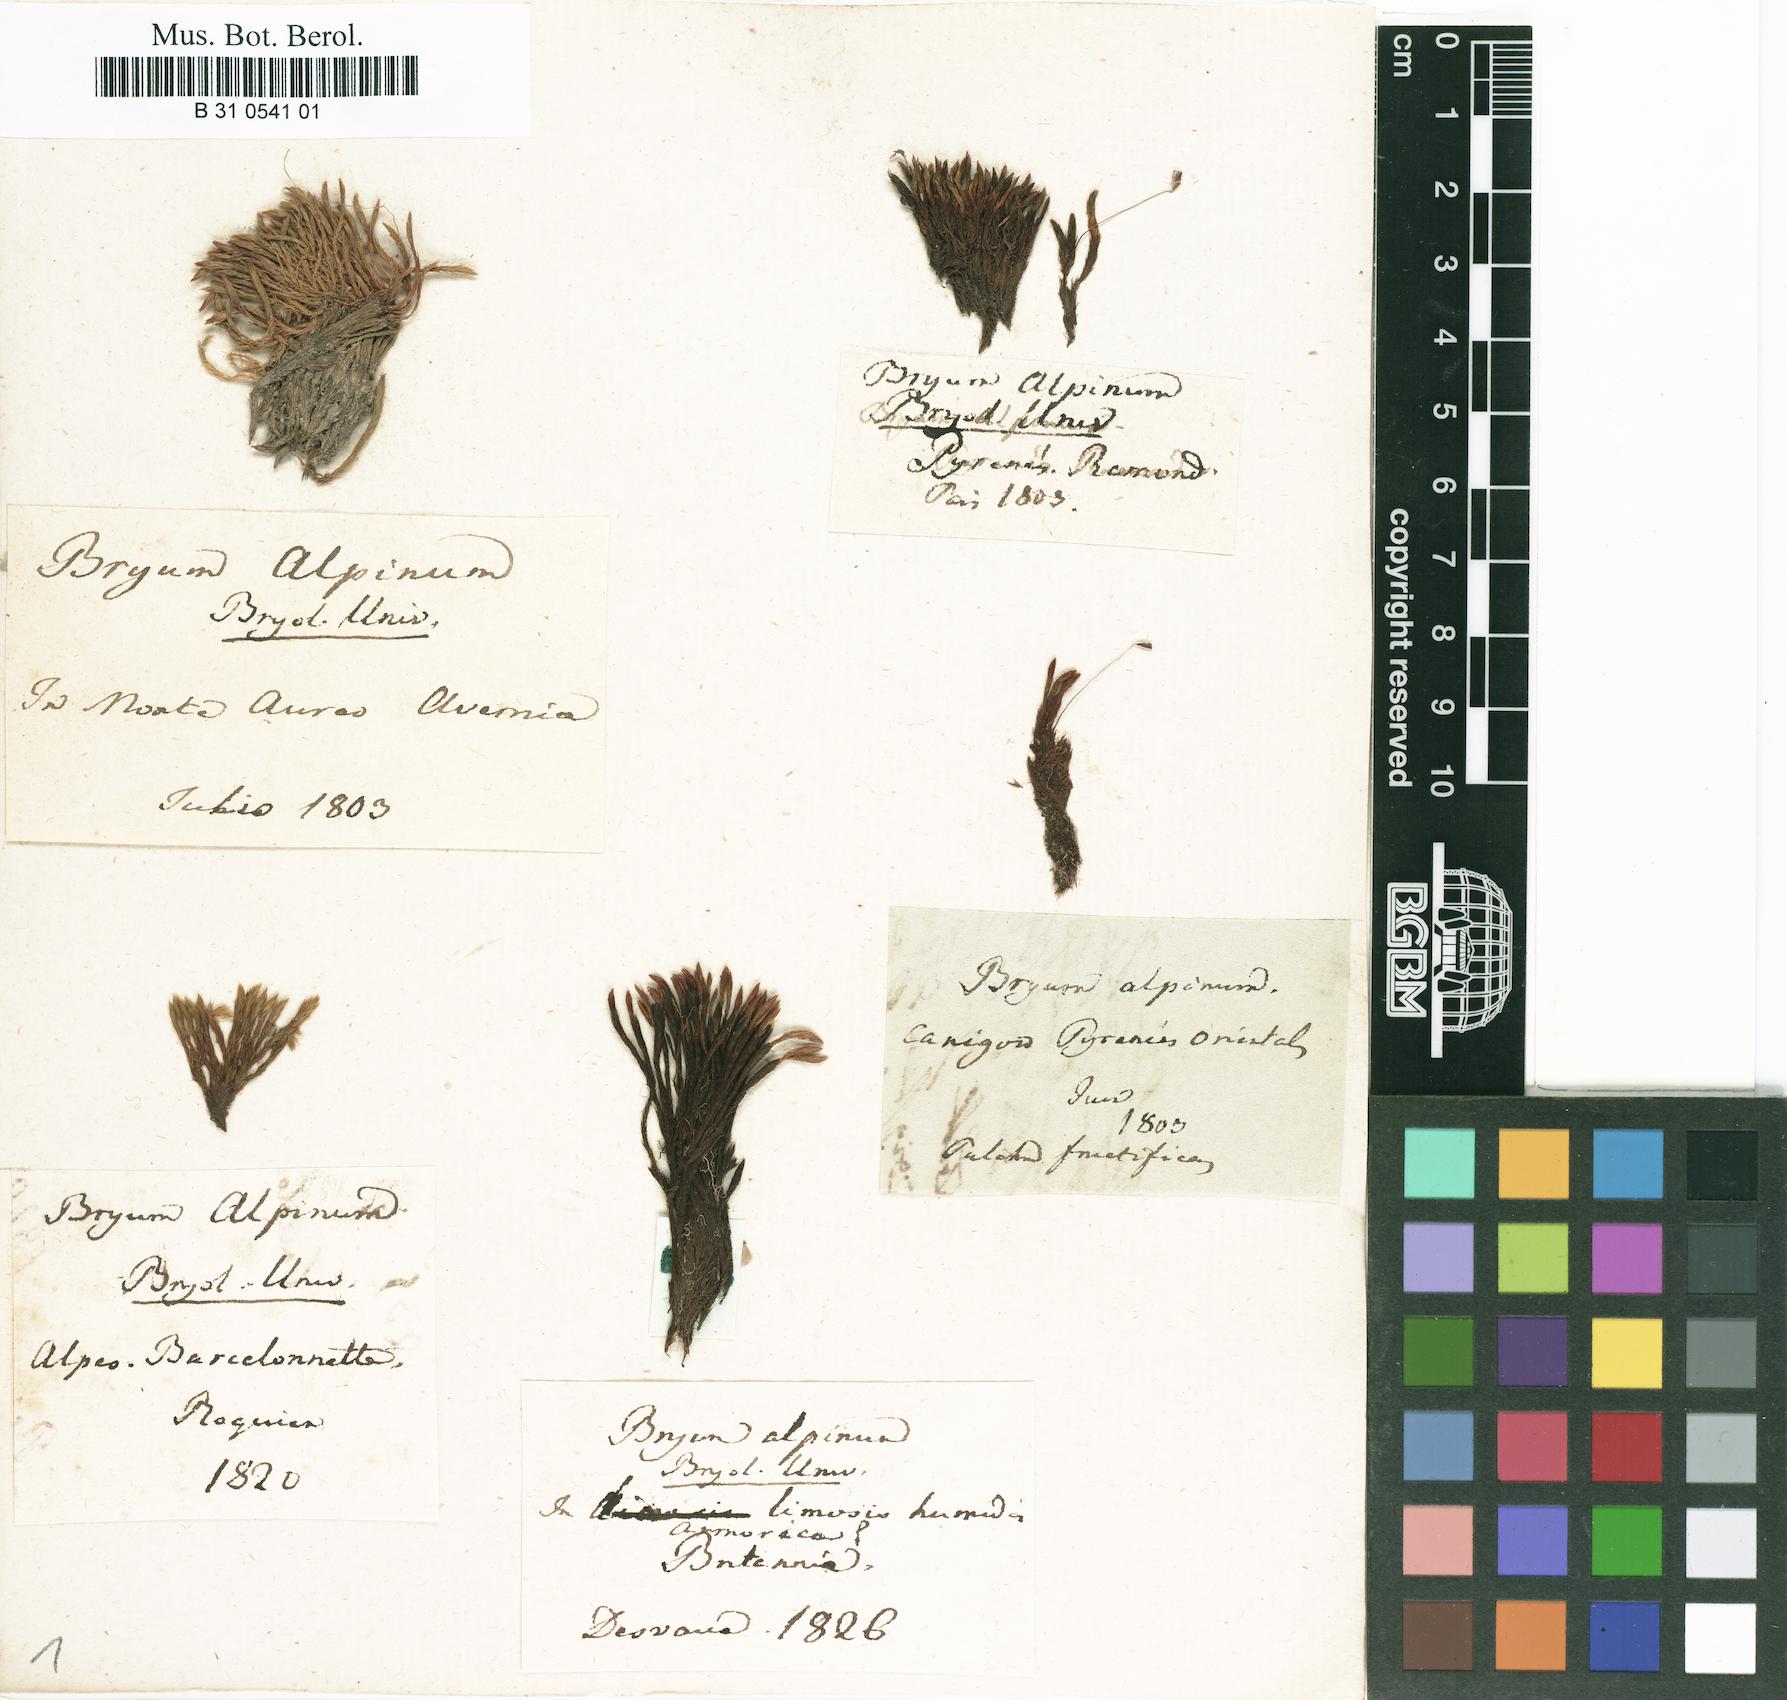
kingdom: Plantae
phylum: Bryophyta
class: Bryopsida
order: Bryales
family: Bryaceae
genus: Imbribryum
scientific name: Imbribryum alpinum
